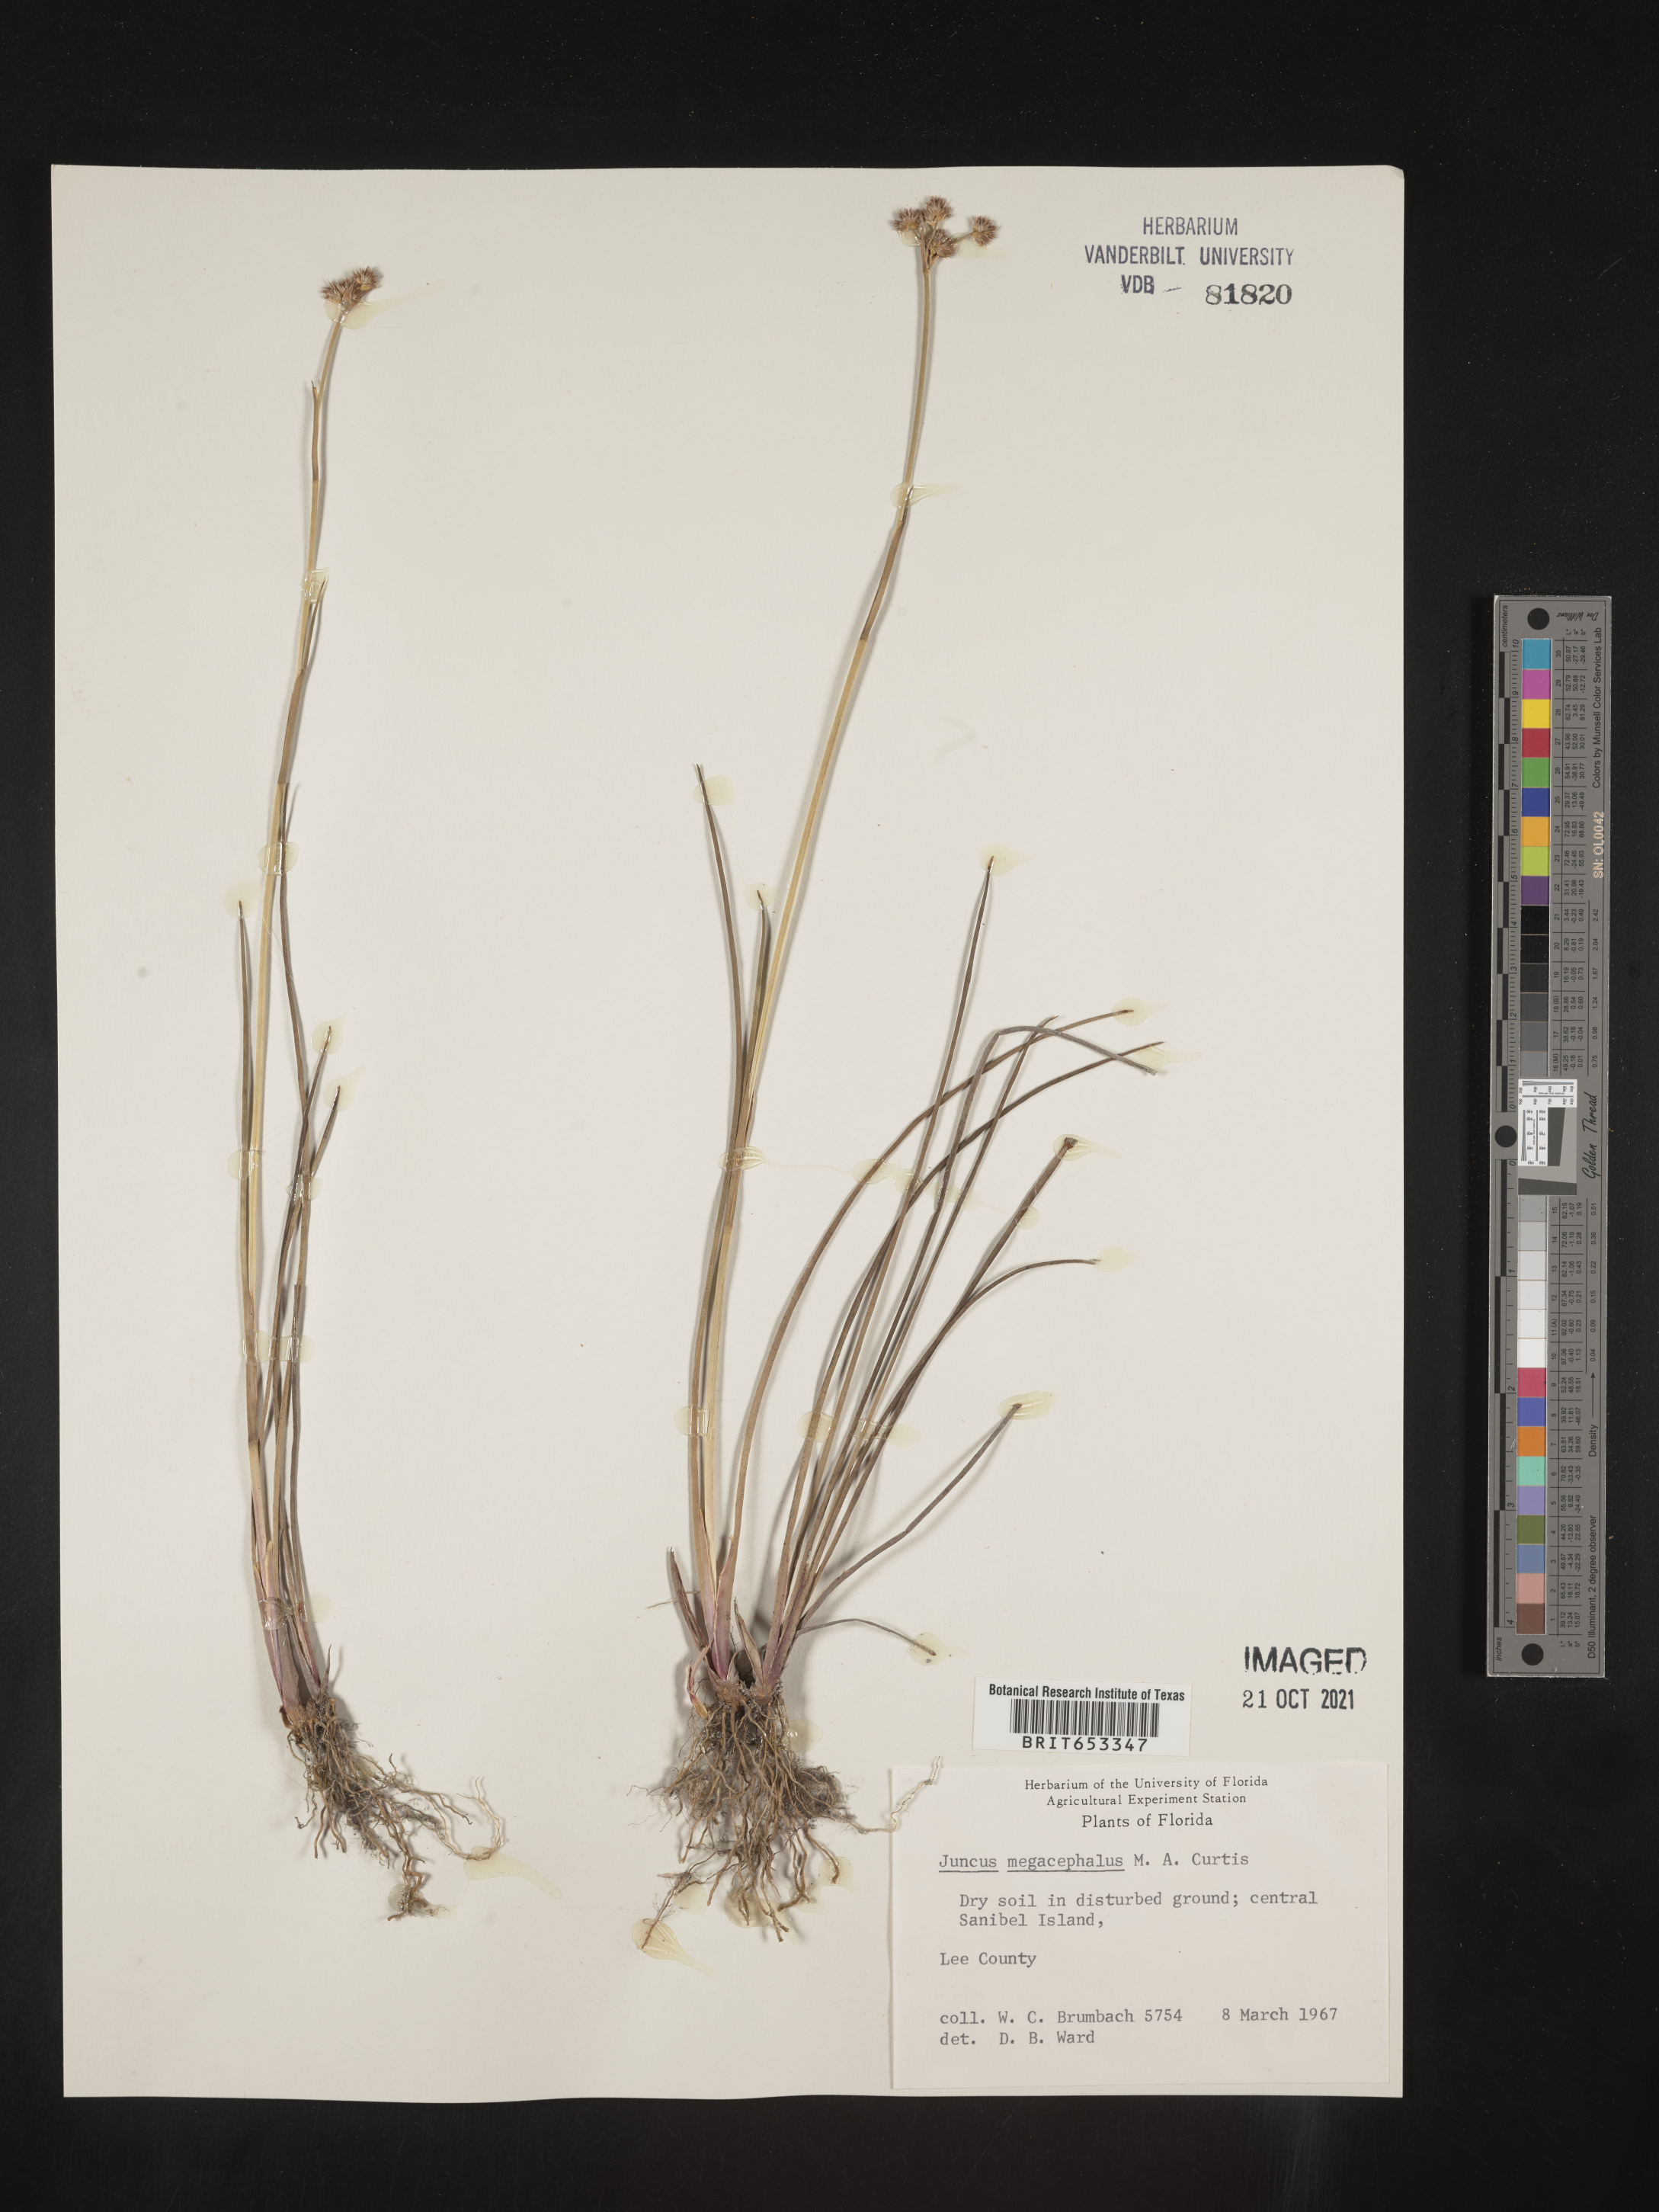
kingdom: Plantae
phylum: Tracheophyta
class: Liliopsida
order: Poales
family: Juncaceae
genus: Juncus
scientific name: Juncus megacephalus
